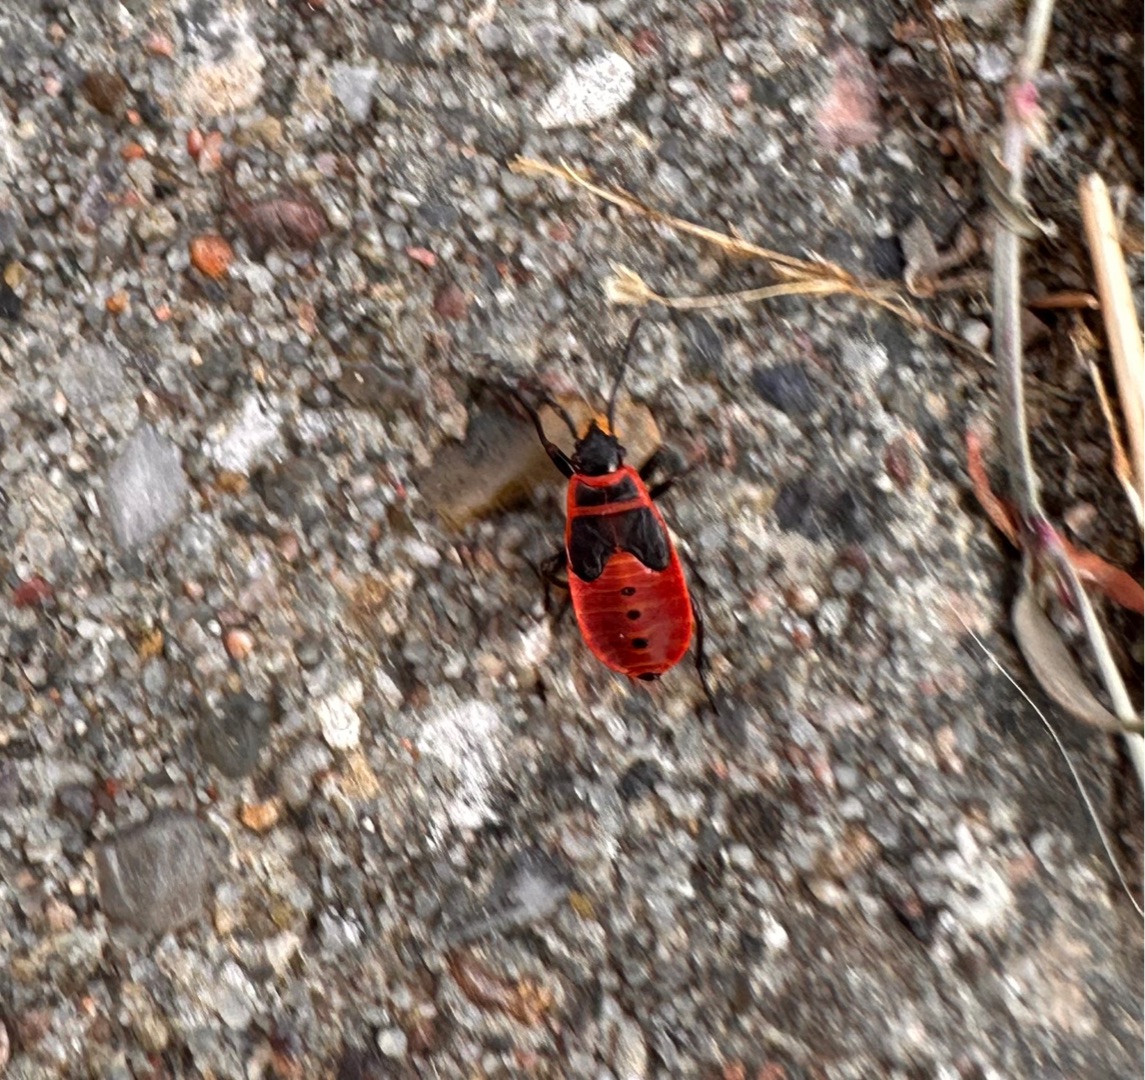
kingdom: Animalia
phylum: Arthropoda
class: Insecta
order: Hemiptera
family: Pyrrhocoridae
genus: Pyrrhocoris
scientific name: Pyrrhocoris apterus
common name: Ildtæge
